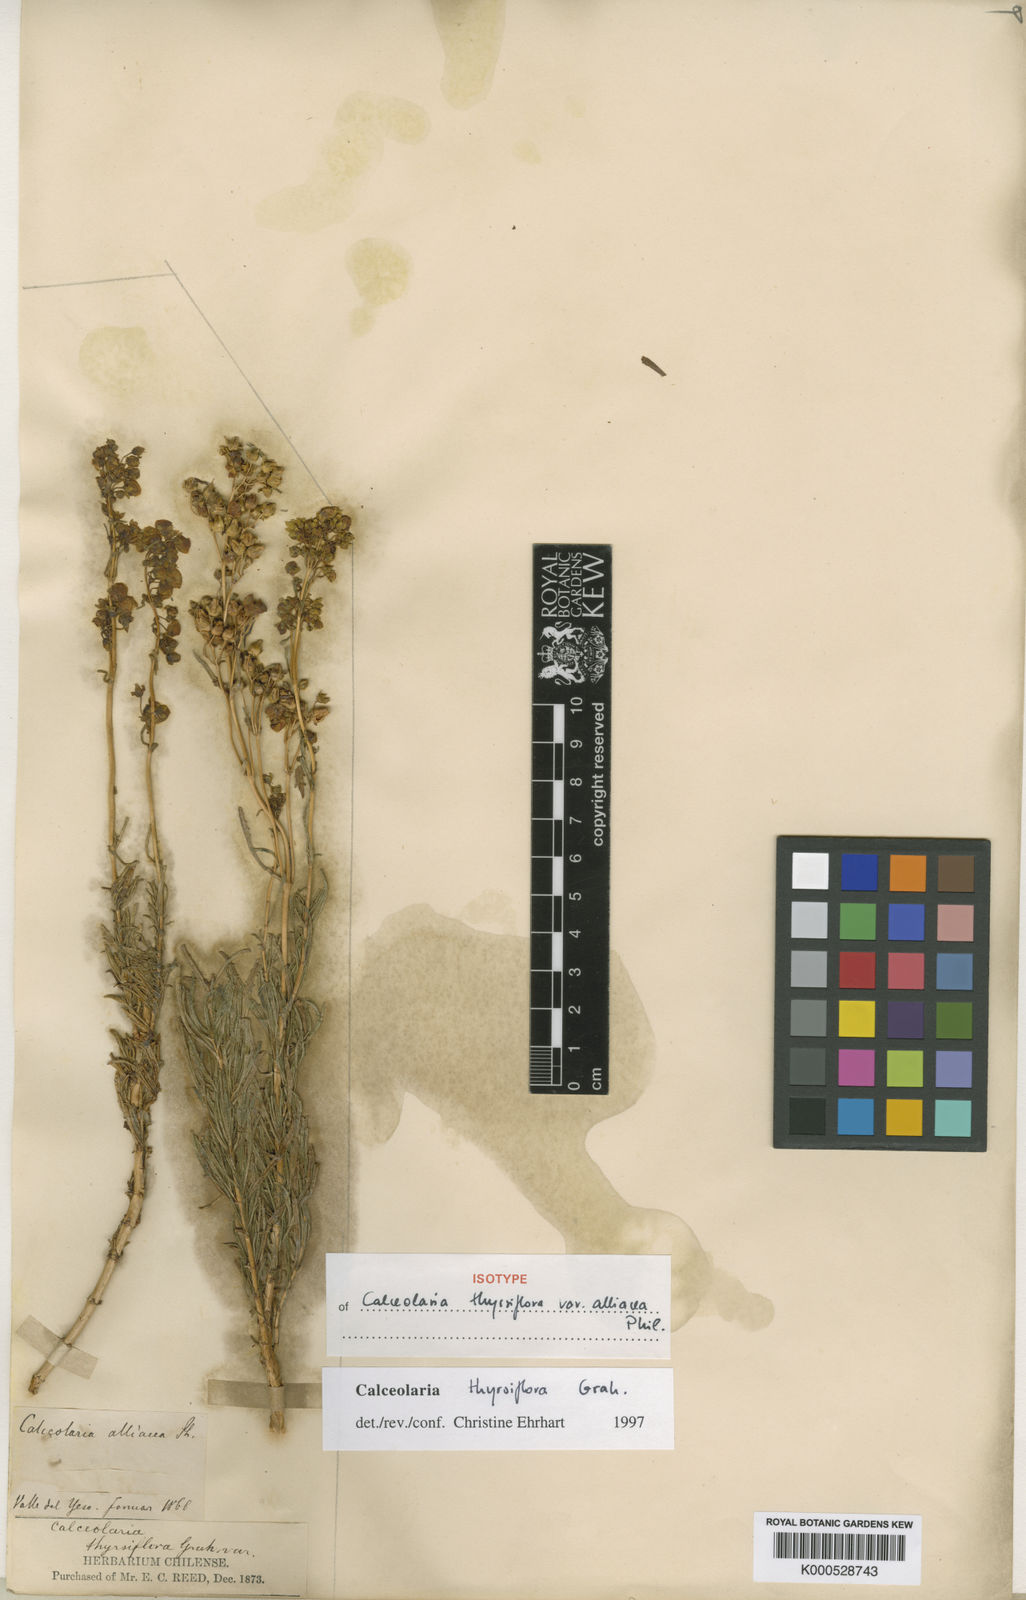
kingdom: Plantae
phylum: Tracheophyta
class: Magnoliopsida
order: Lamiales
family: Calceolariaceae
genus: Calceolaria
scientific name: Calceolaria thyrsiflora
